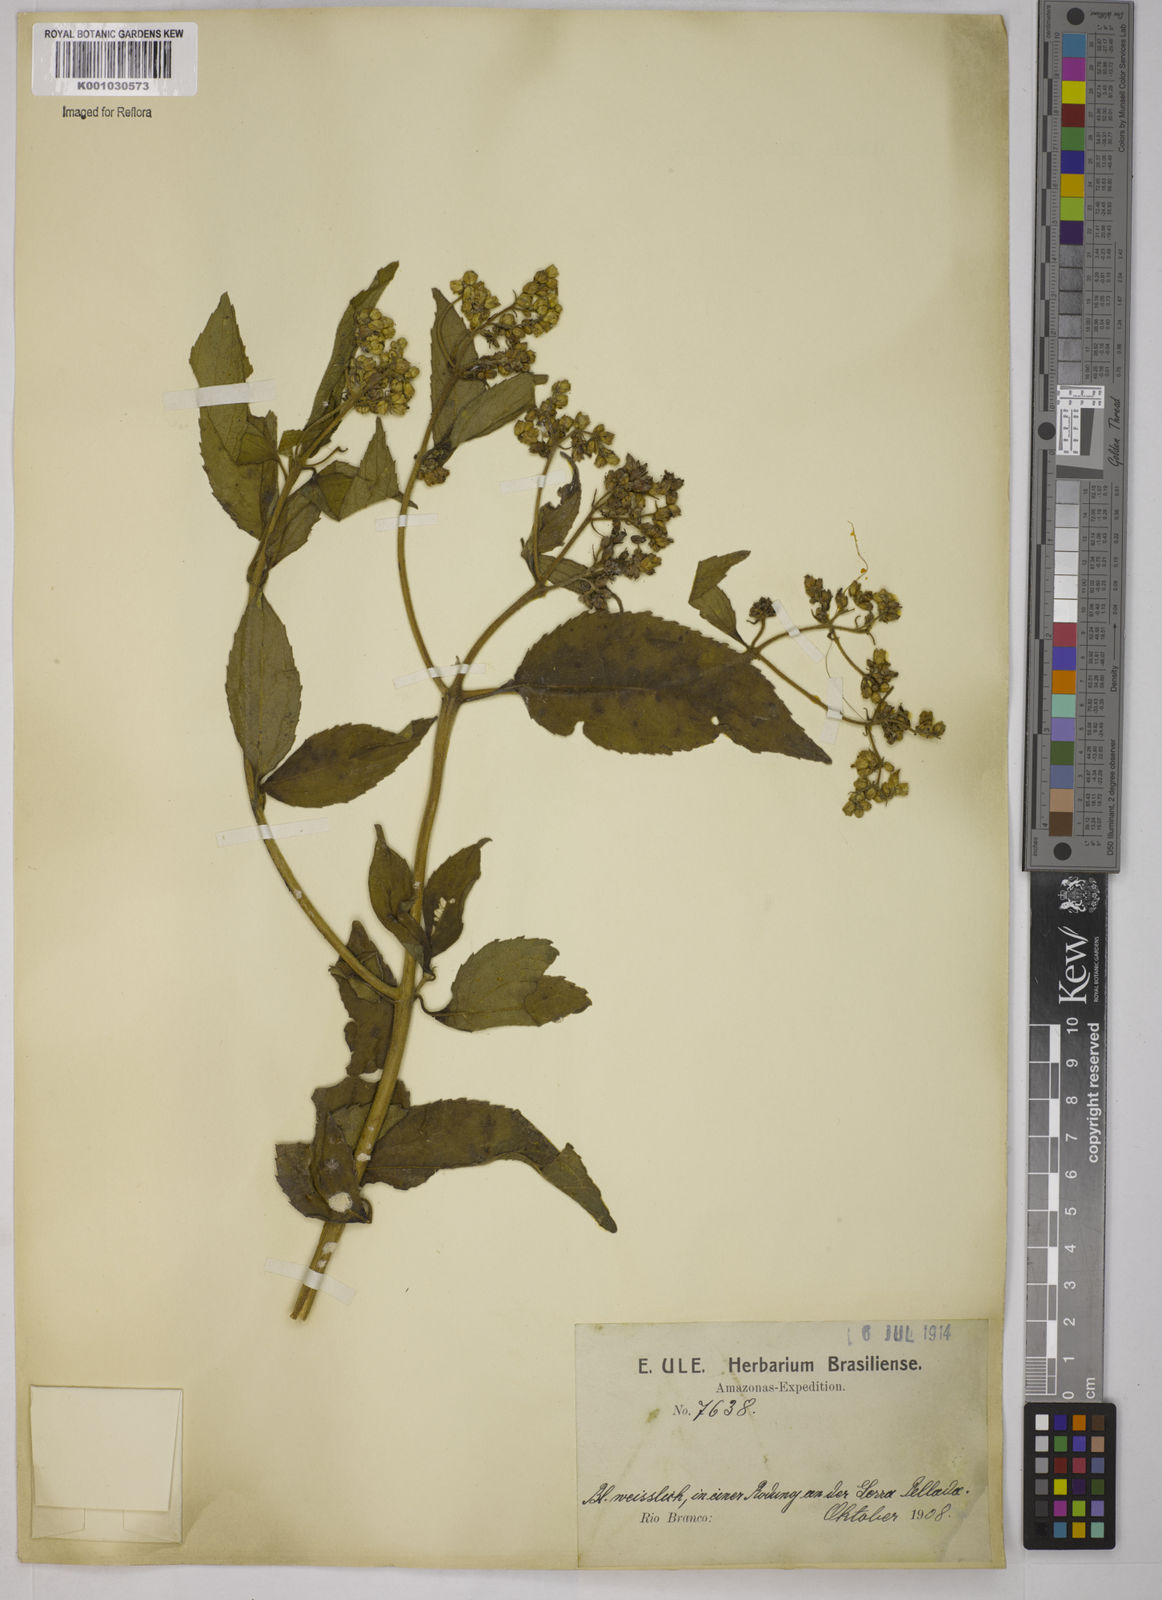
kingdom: Plantae
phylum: Tracheophyta
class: Magnoliopsida
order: Asterales
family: Asteraceae
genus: Clibadium
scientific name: Clibadium
